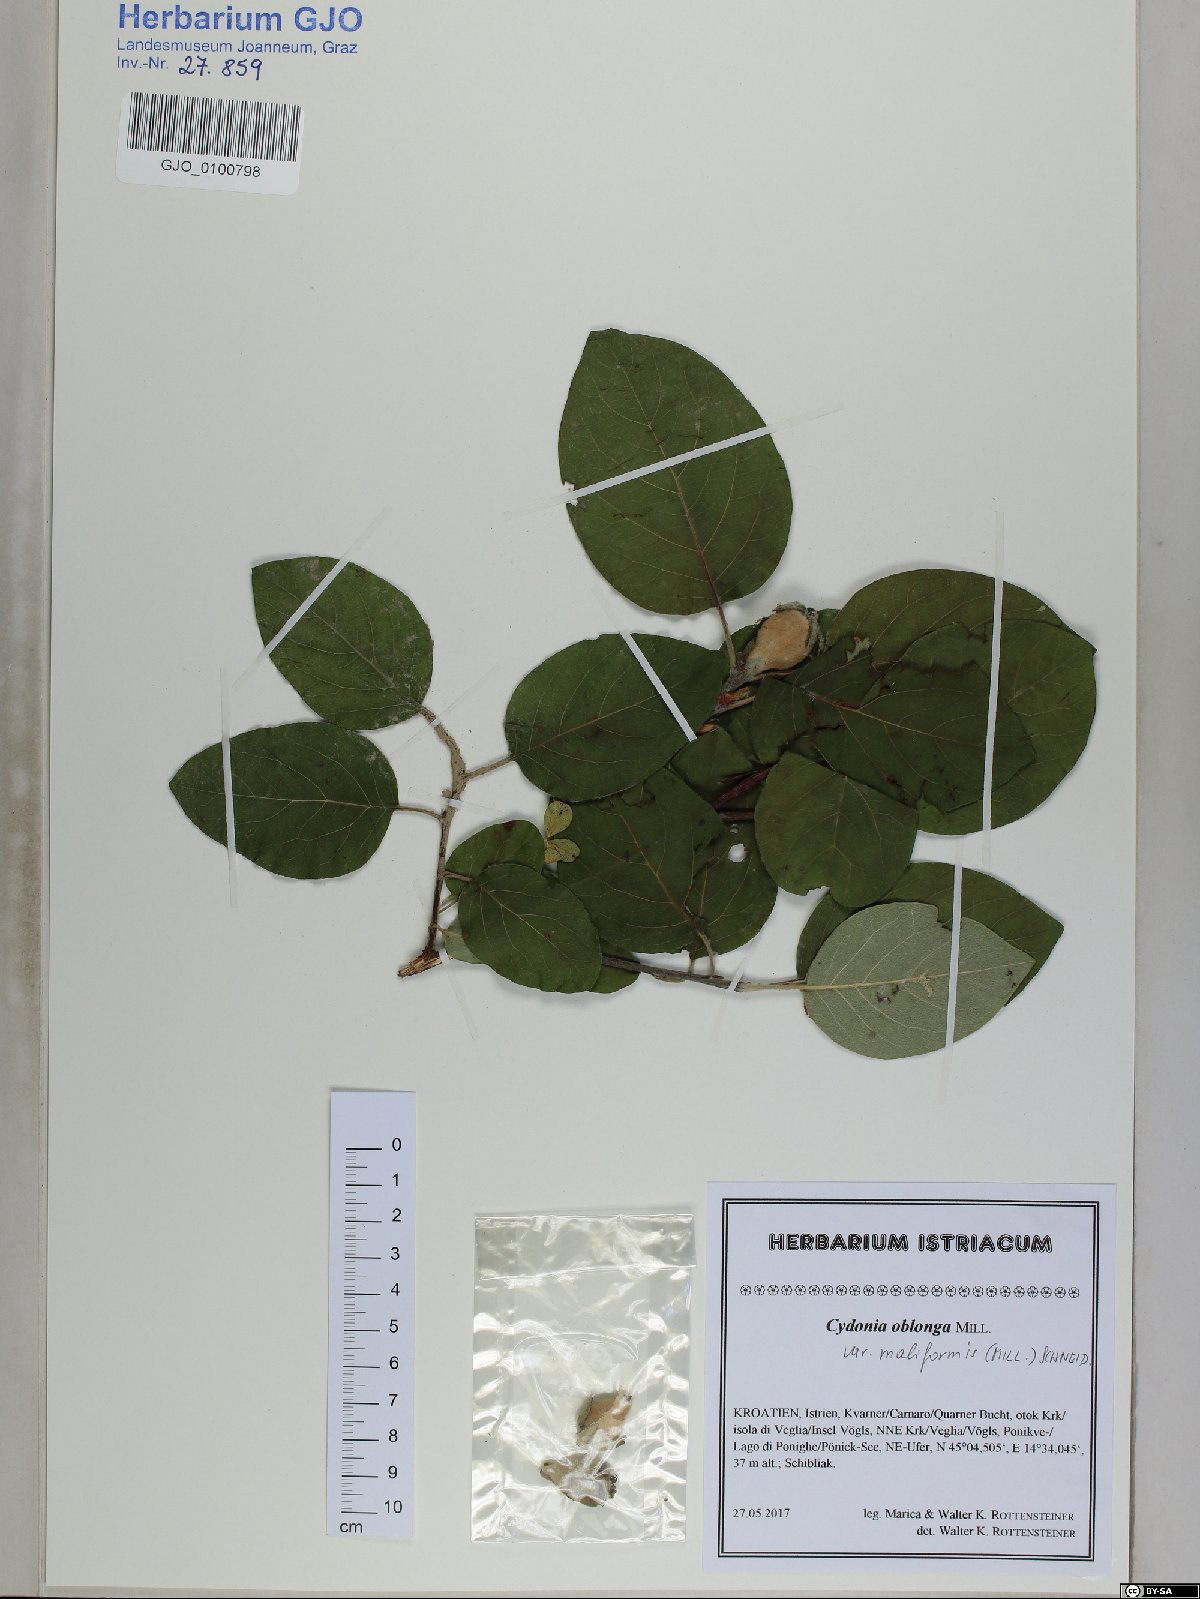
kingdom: Plantae
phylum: Tracheophyta
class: Magnoliopsida
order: Rosales
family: Rosaceae
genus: Cydonia
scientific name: Cydonia oblonga
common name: Quince
